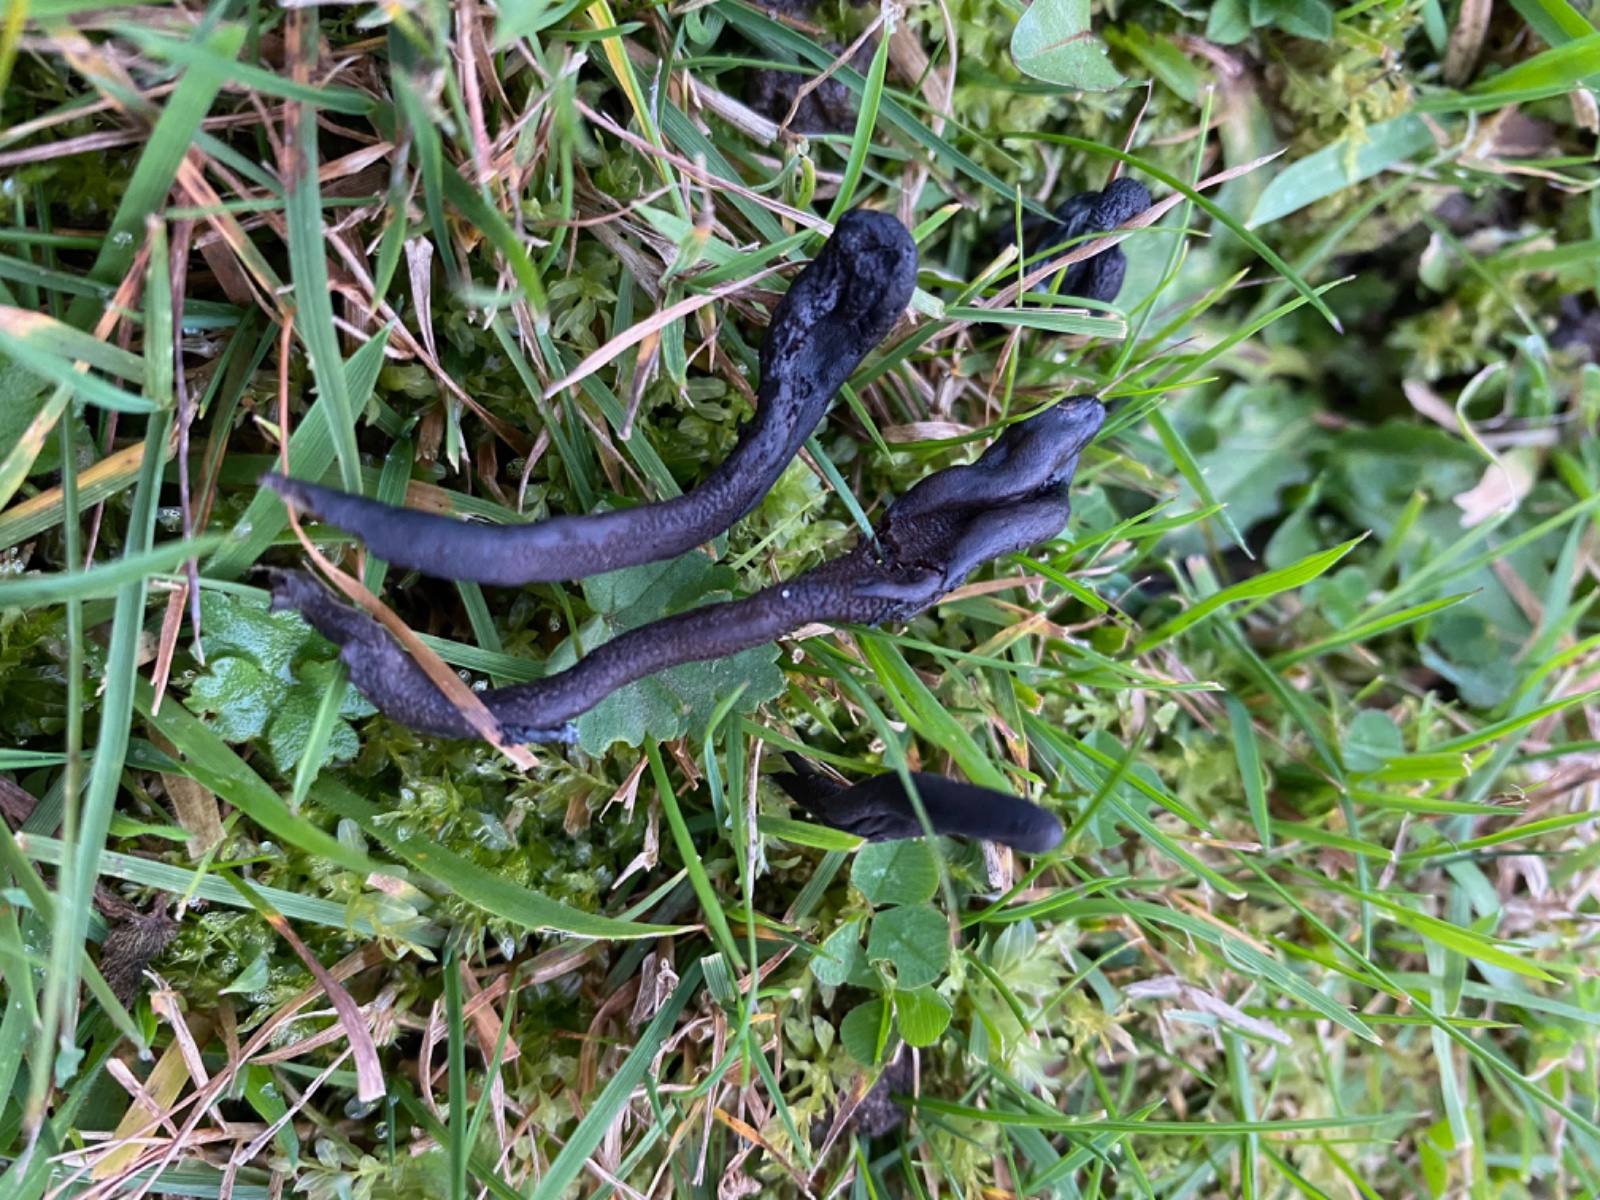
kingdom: Fungi
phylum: Ascomycota
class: Geoglossomycetes
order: Geoglossales
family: Geoglossaceae
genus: Geoglossum
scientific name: Geoglossum fallax
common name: småskællet jordtunge
